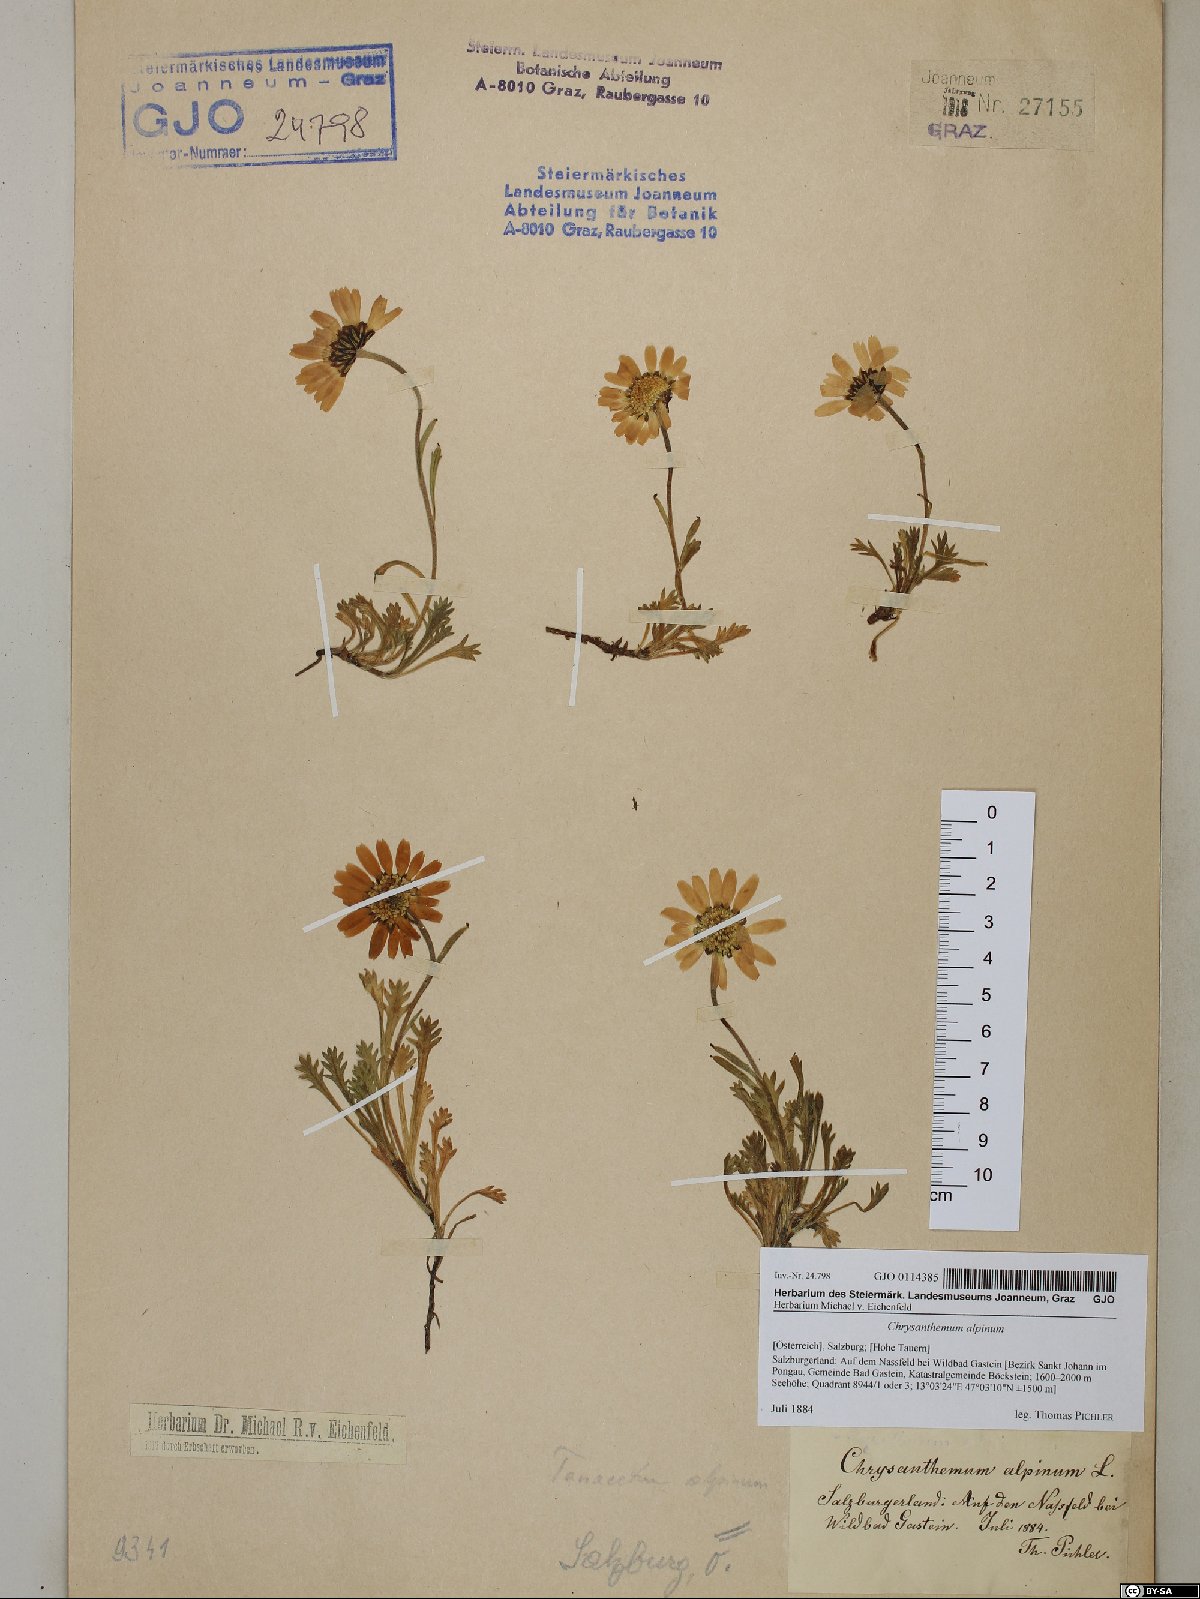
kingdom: Plantae
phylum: Tracheophyta
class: Magnoliopsida
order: Asterales
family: Asteraceae
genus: Leucanthemopsis
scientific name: Leucanthemopsis alpina
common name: Alpine moon daisy
